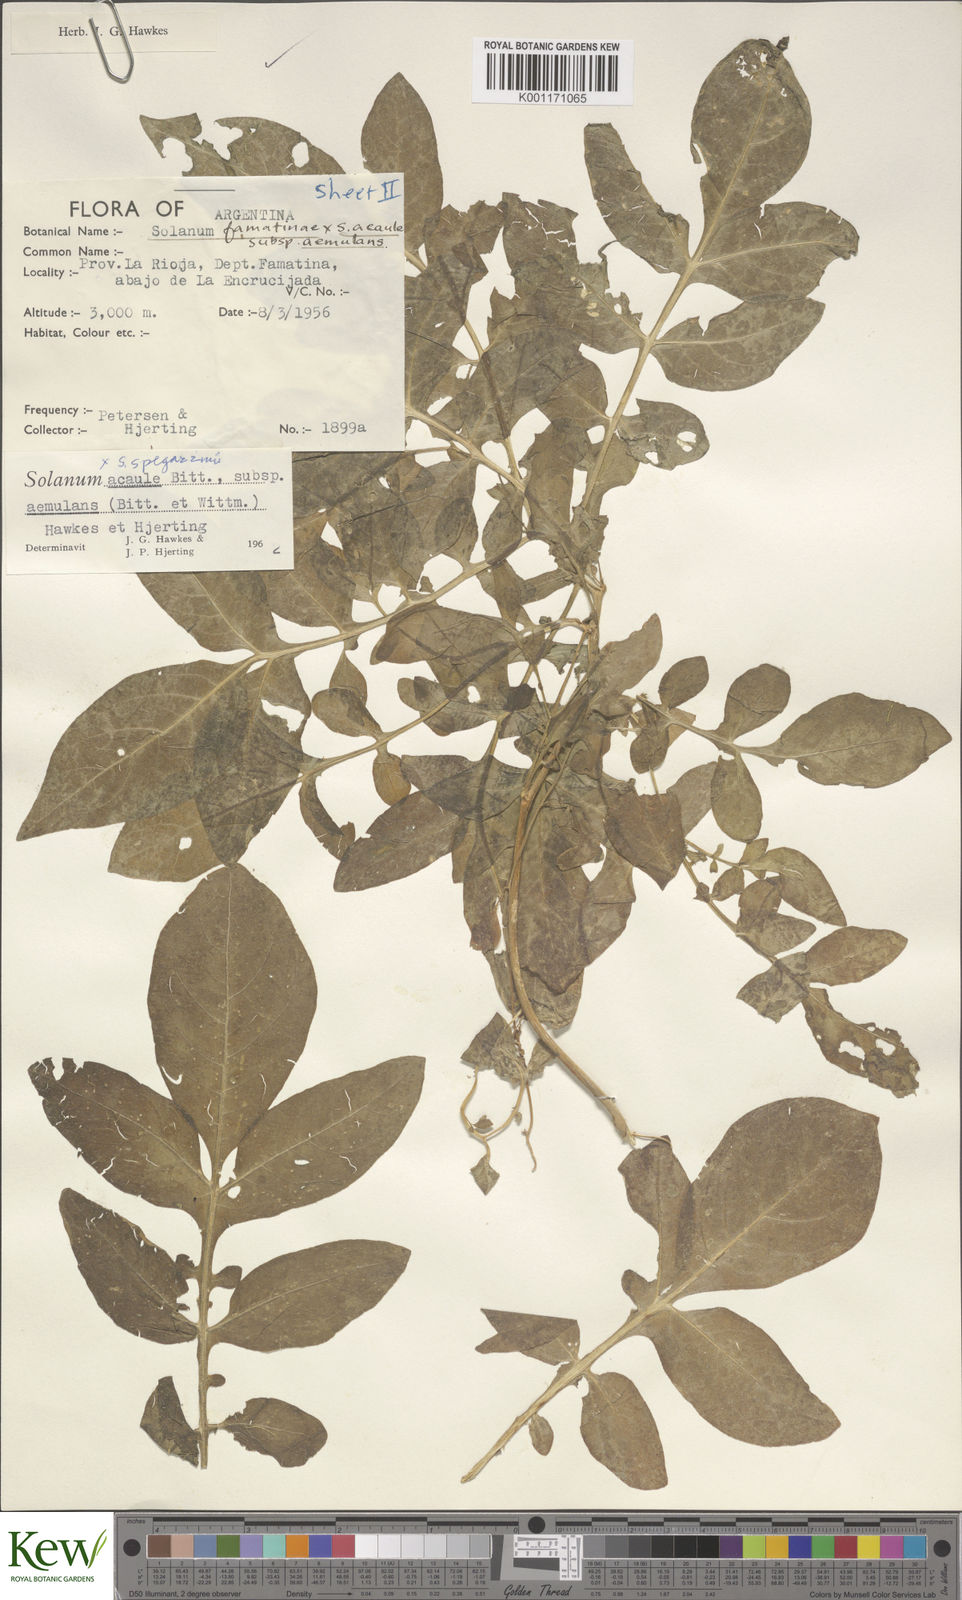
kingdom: Plantae
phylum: Tracheophyta
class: Magnoliopsida
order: Solanales
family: Solanaceae
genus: Solanum
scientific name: Solanum aemulans
